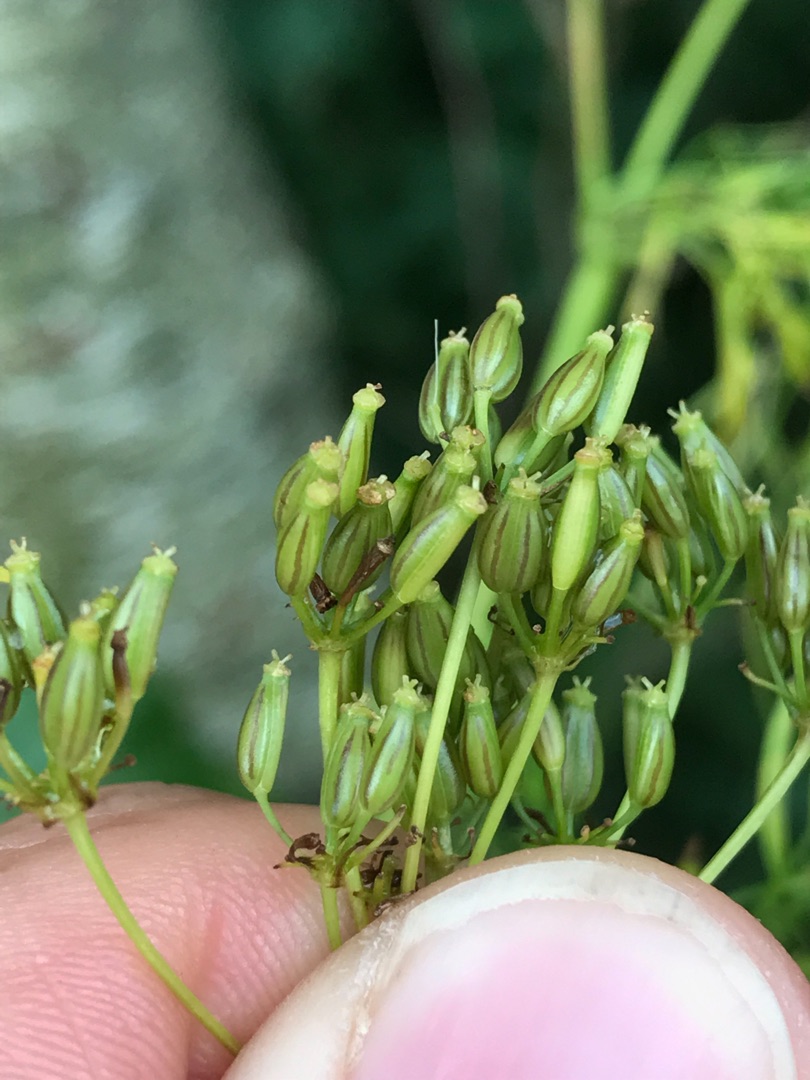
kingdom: Plantae
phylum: Tracheophyta
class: Magnoliopsida
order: Apiales
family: Apiaceae
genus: Chaerophyllum
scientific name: Chaerophyllum bulbosum
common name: Knoldet hulsvøb
